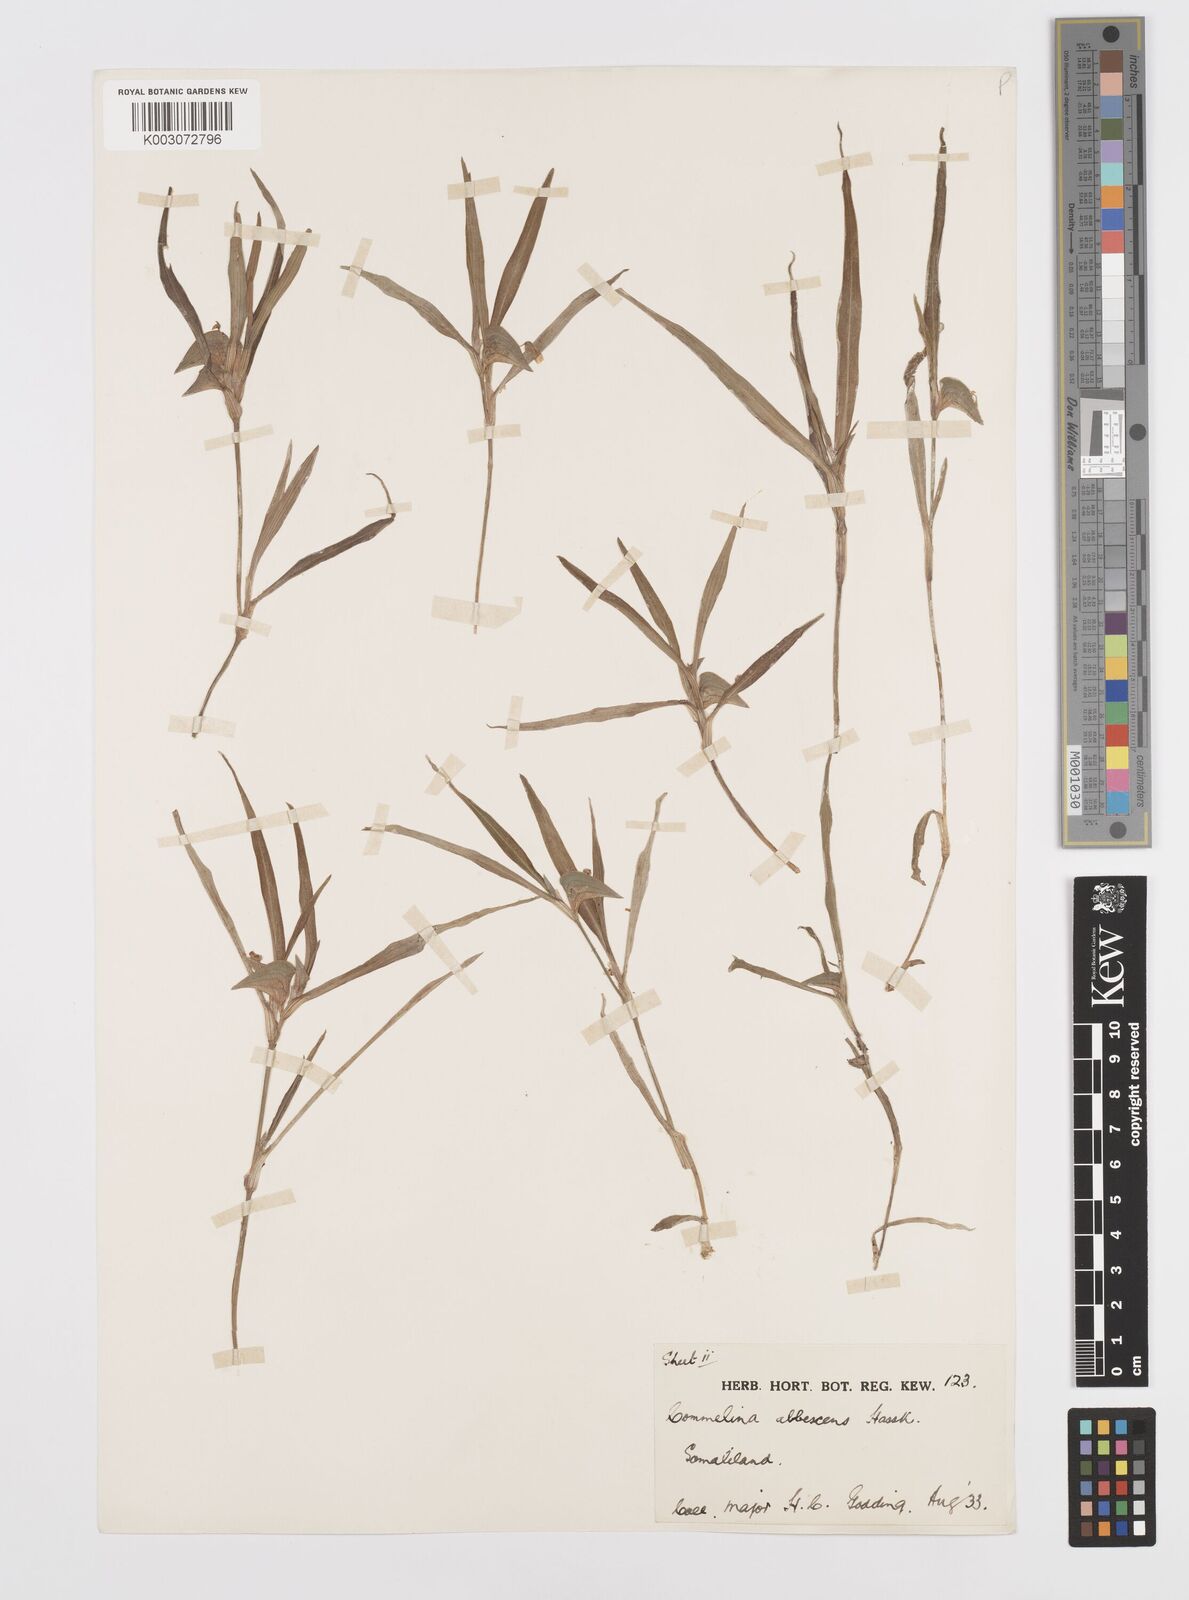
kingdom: Plantae
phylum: Tracheophyta
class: Liliopsida
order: Commelinales
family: Commelinaceae
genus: Commelina
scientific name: Commelina albescens
